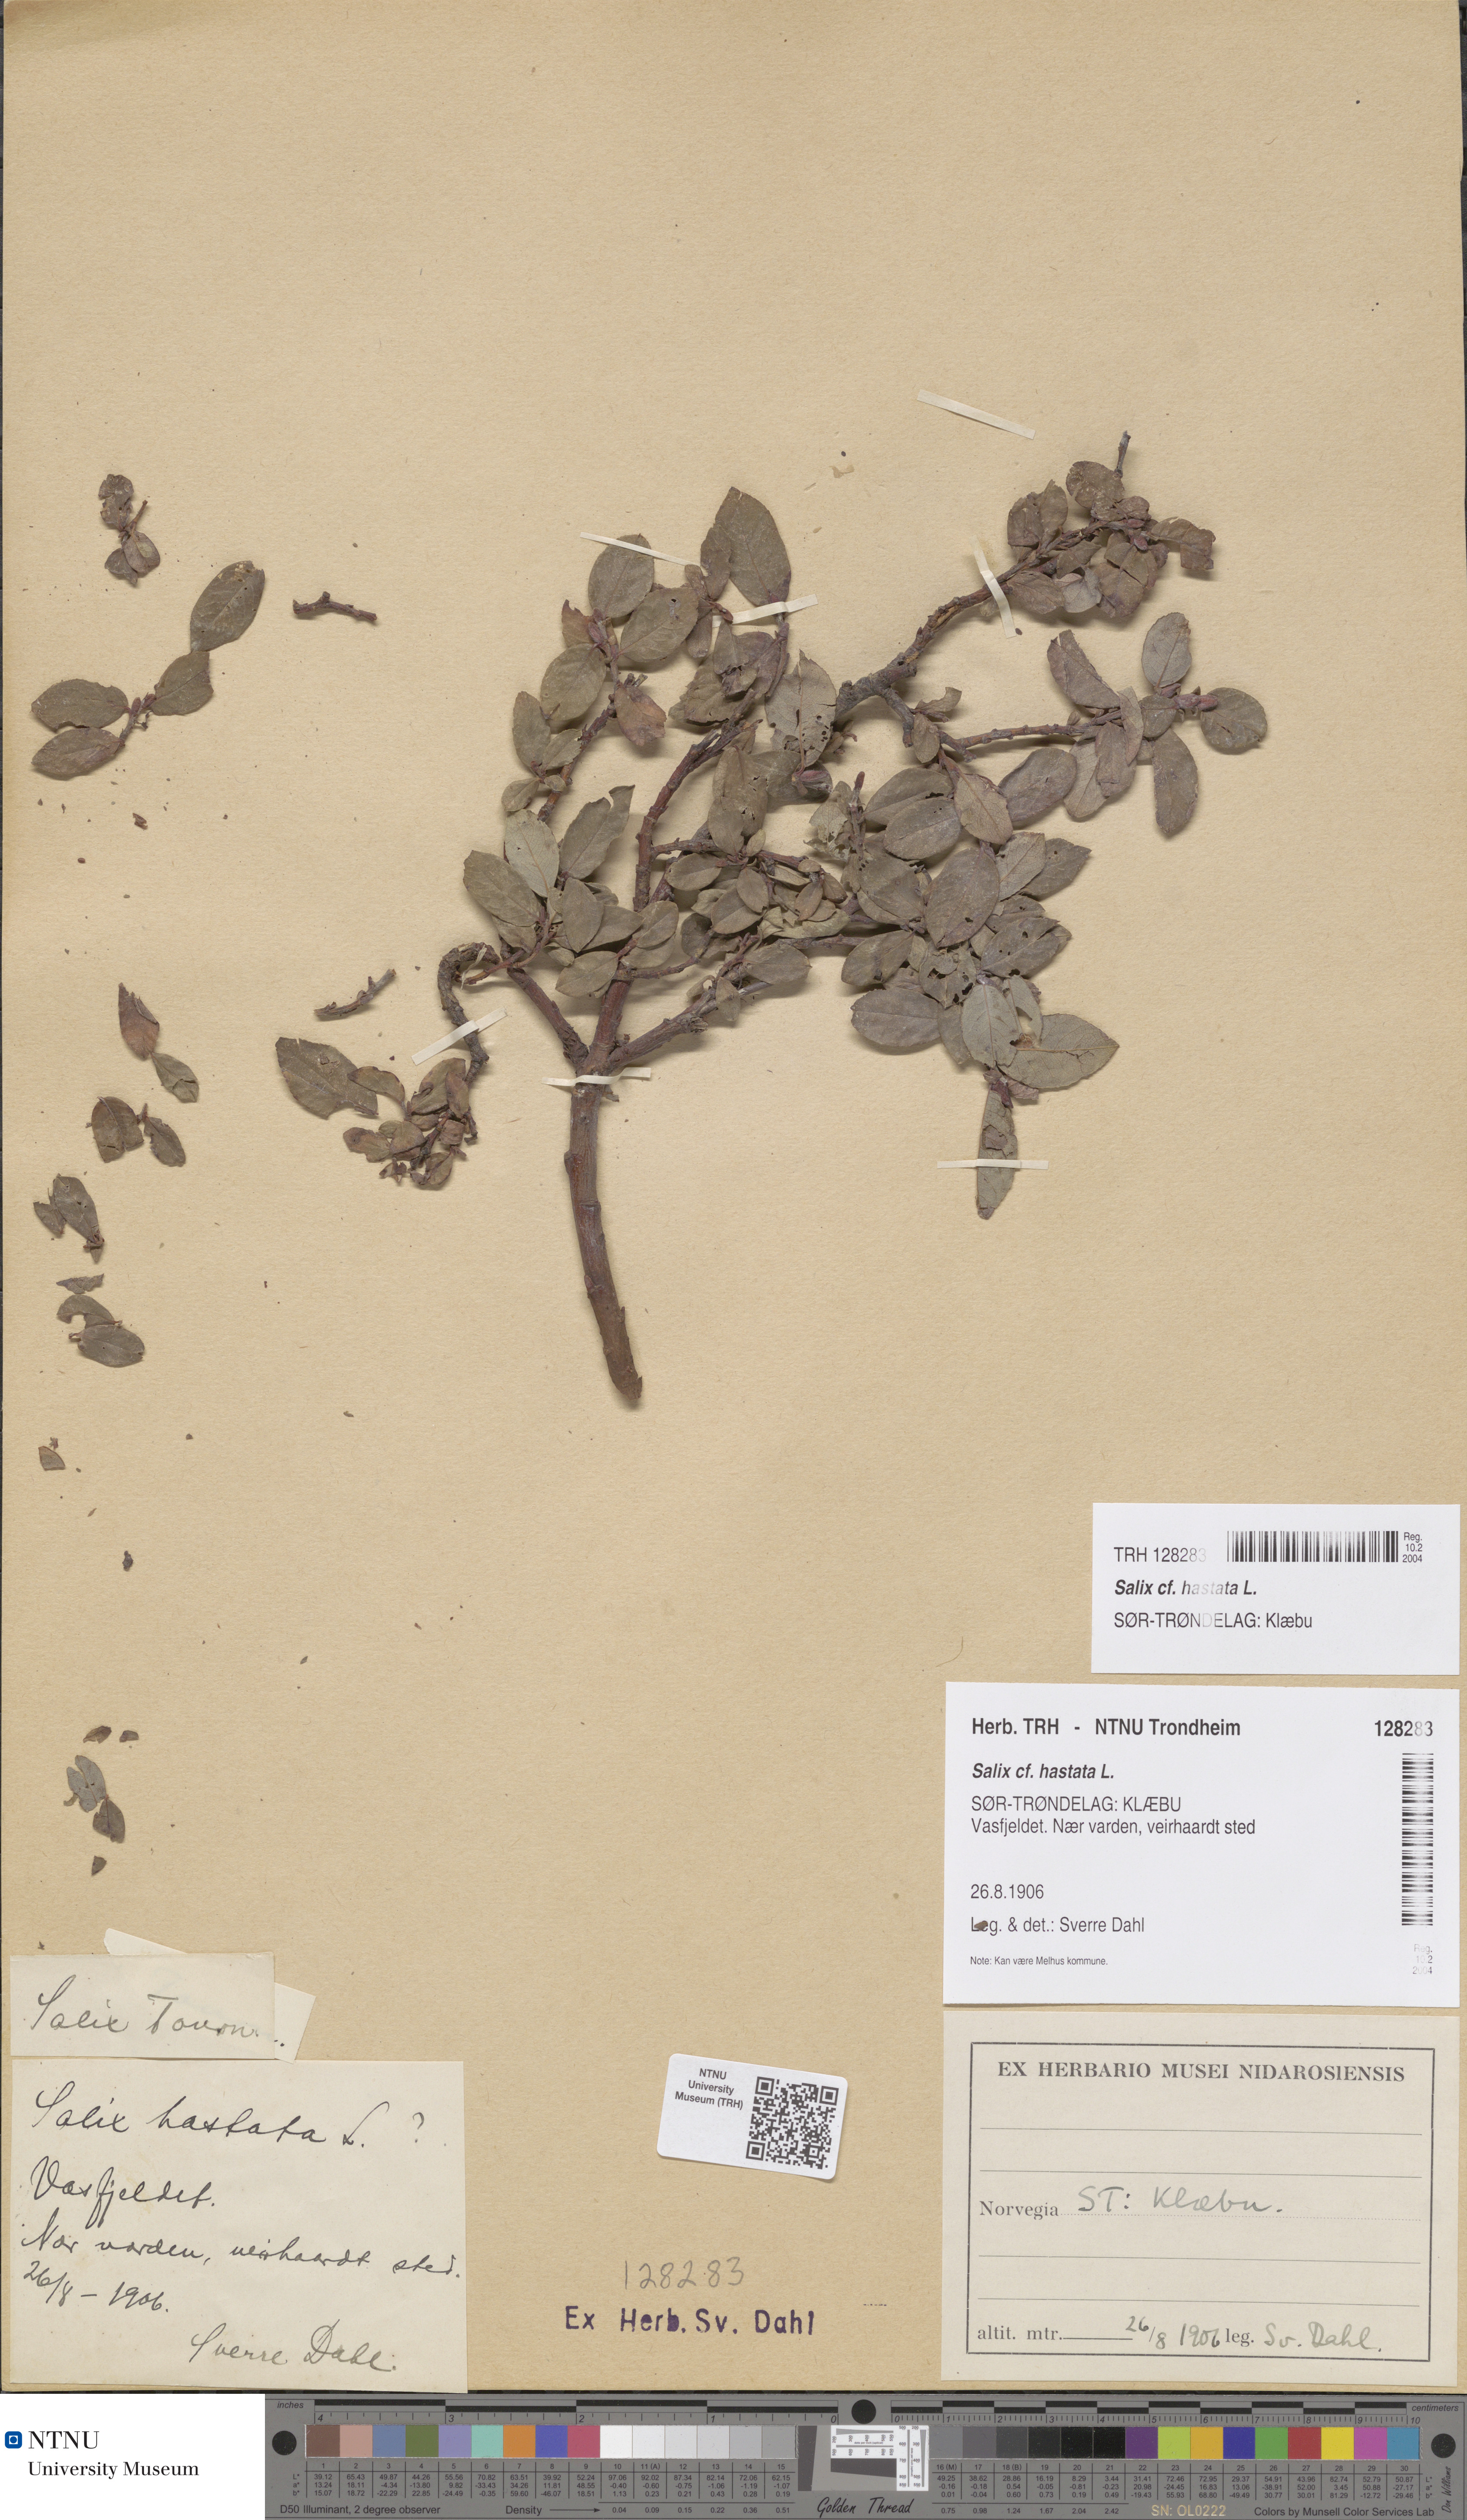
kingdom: Plantae
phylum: Tracheophyta
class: Magnoliopsida
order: Malpighiales
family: Salicaceae
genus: Salix
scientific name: Salix hastata
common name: Halberd willow
